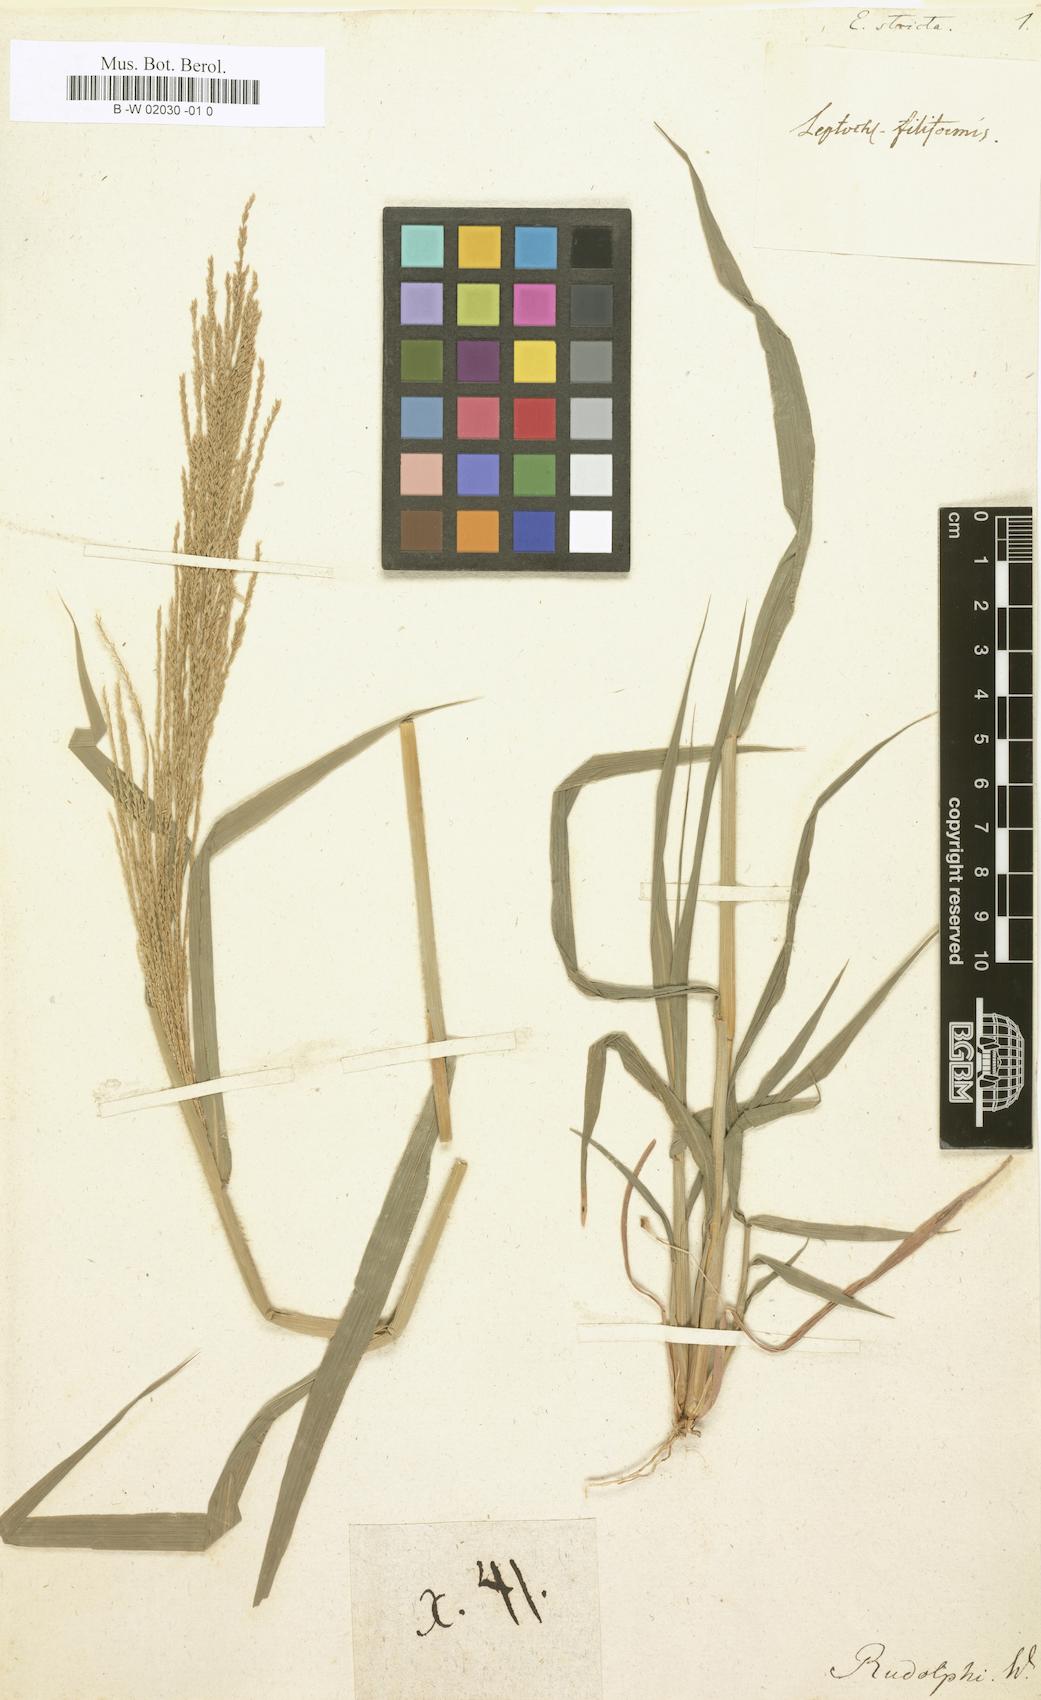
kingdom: Plantae
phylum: Tracheophyta
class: Liliopsida
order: Poales
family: Poaceae
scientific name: Poaceae
